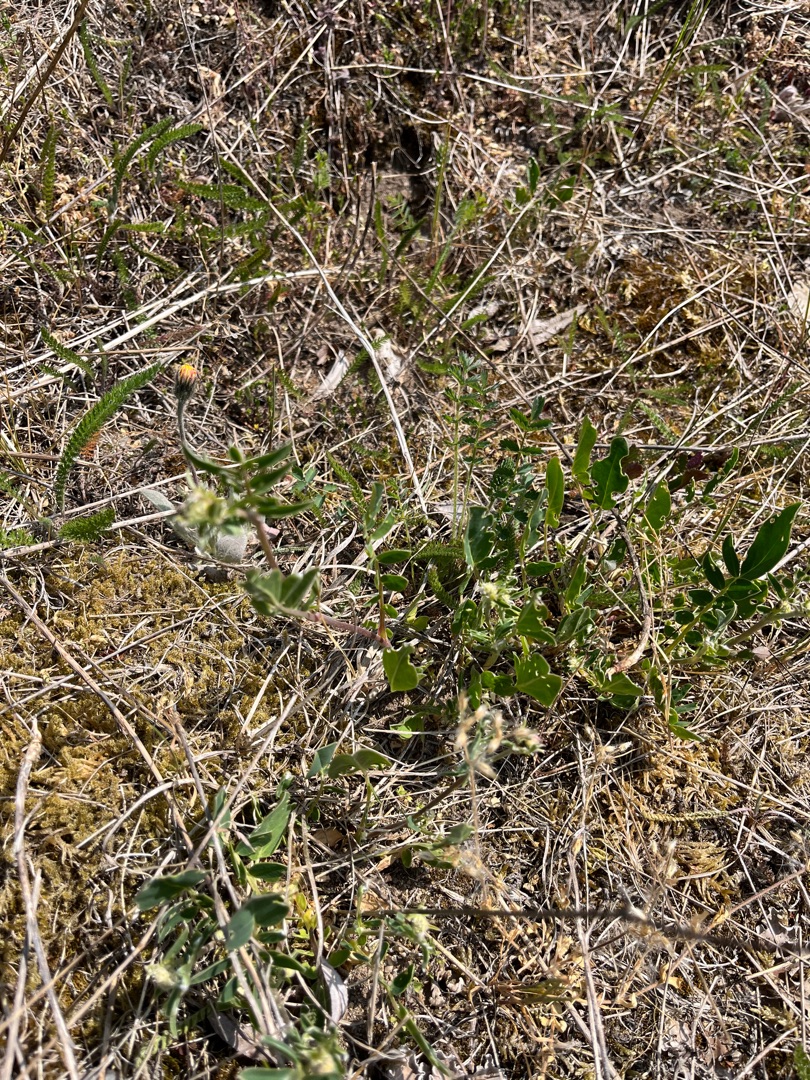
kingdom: Plantae
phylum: Tracheophyta
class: Magnoliopsida
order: Fabales
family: Fabaceae
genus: Anthyllis
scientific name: Anthyllis vulneraria
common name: Rundbælg
